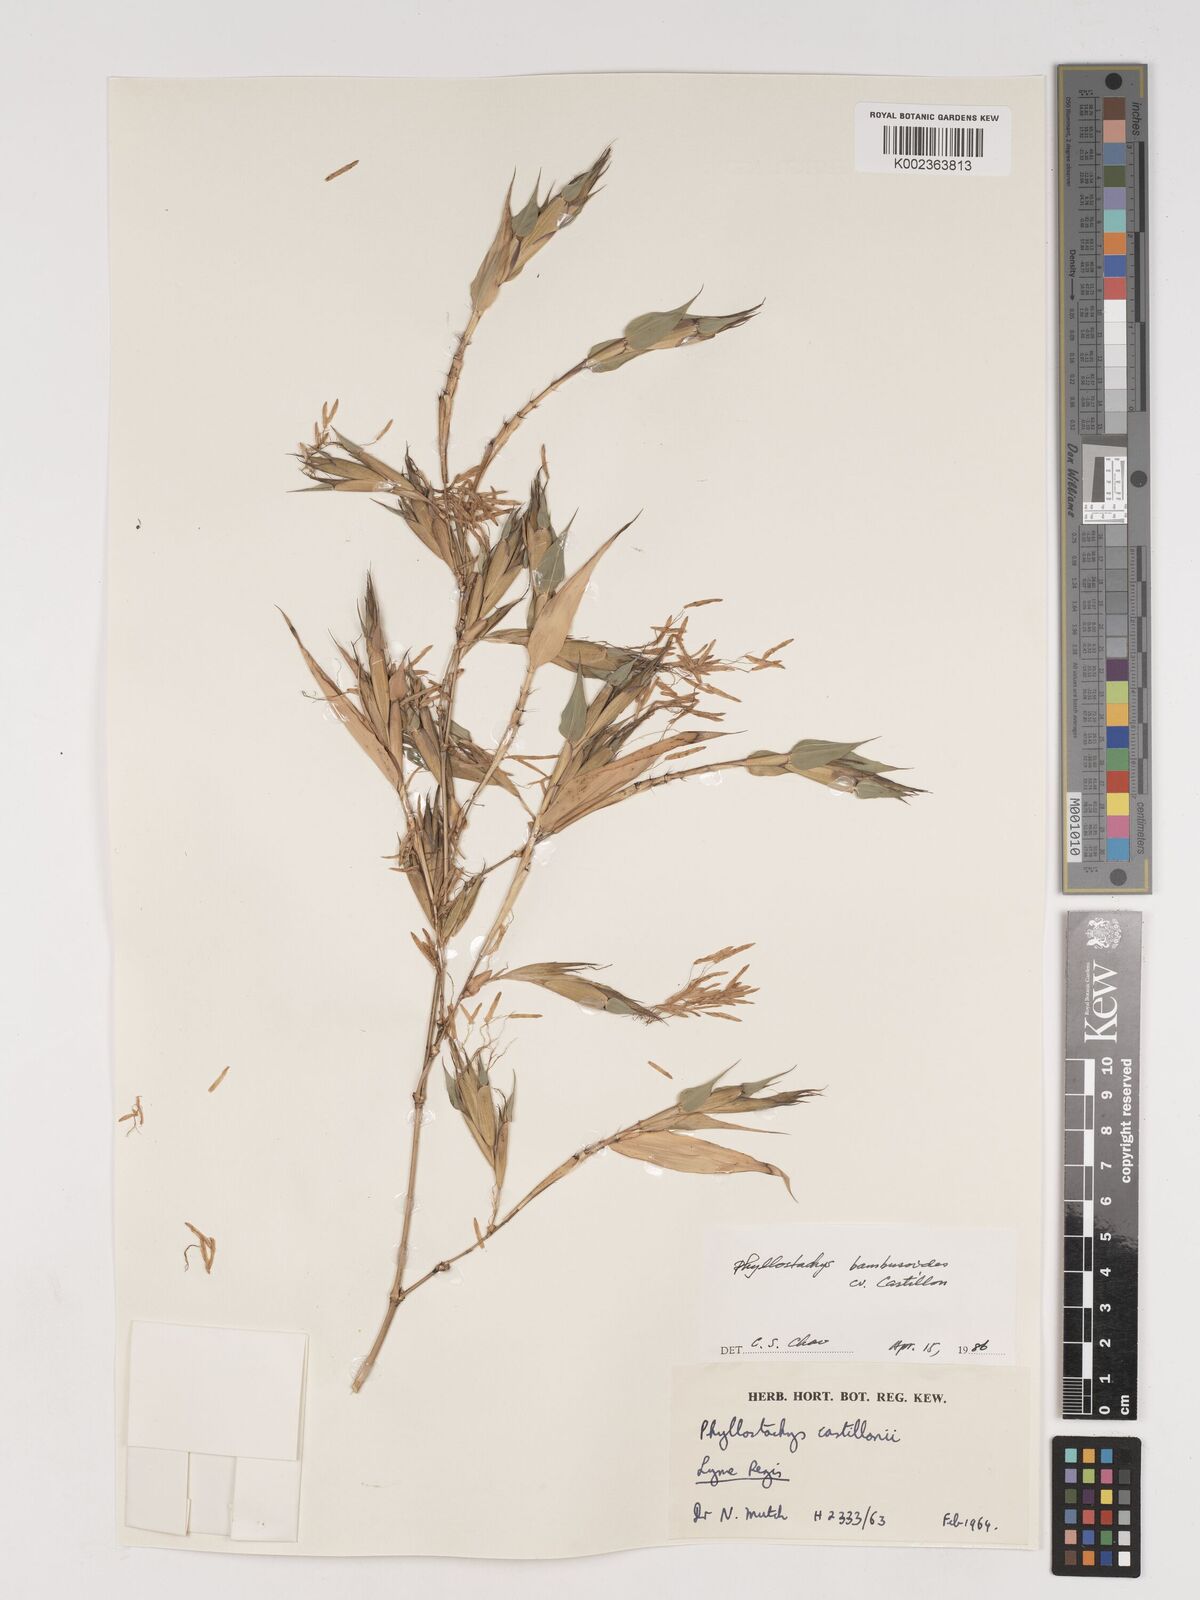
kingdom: Plantae
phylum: Tracheophyta
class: Liliopsida
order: Poales
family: Poaceae
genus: Phyllostachys
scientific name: Phyllostachys reticulata
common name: Bamboo
